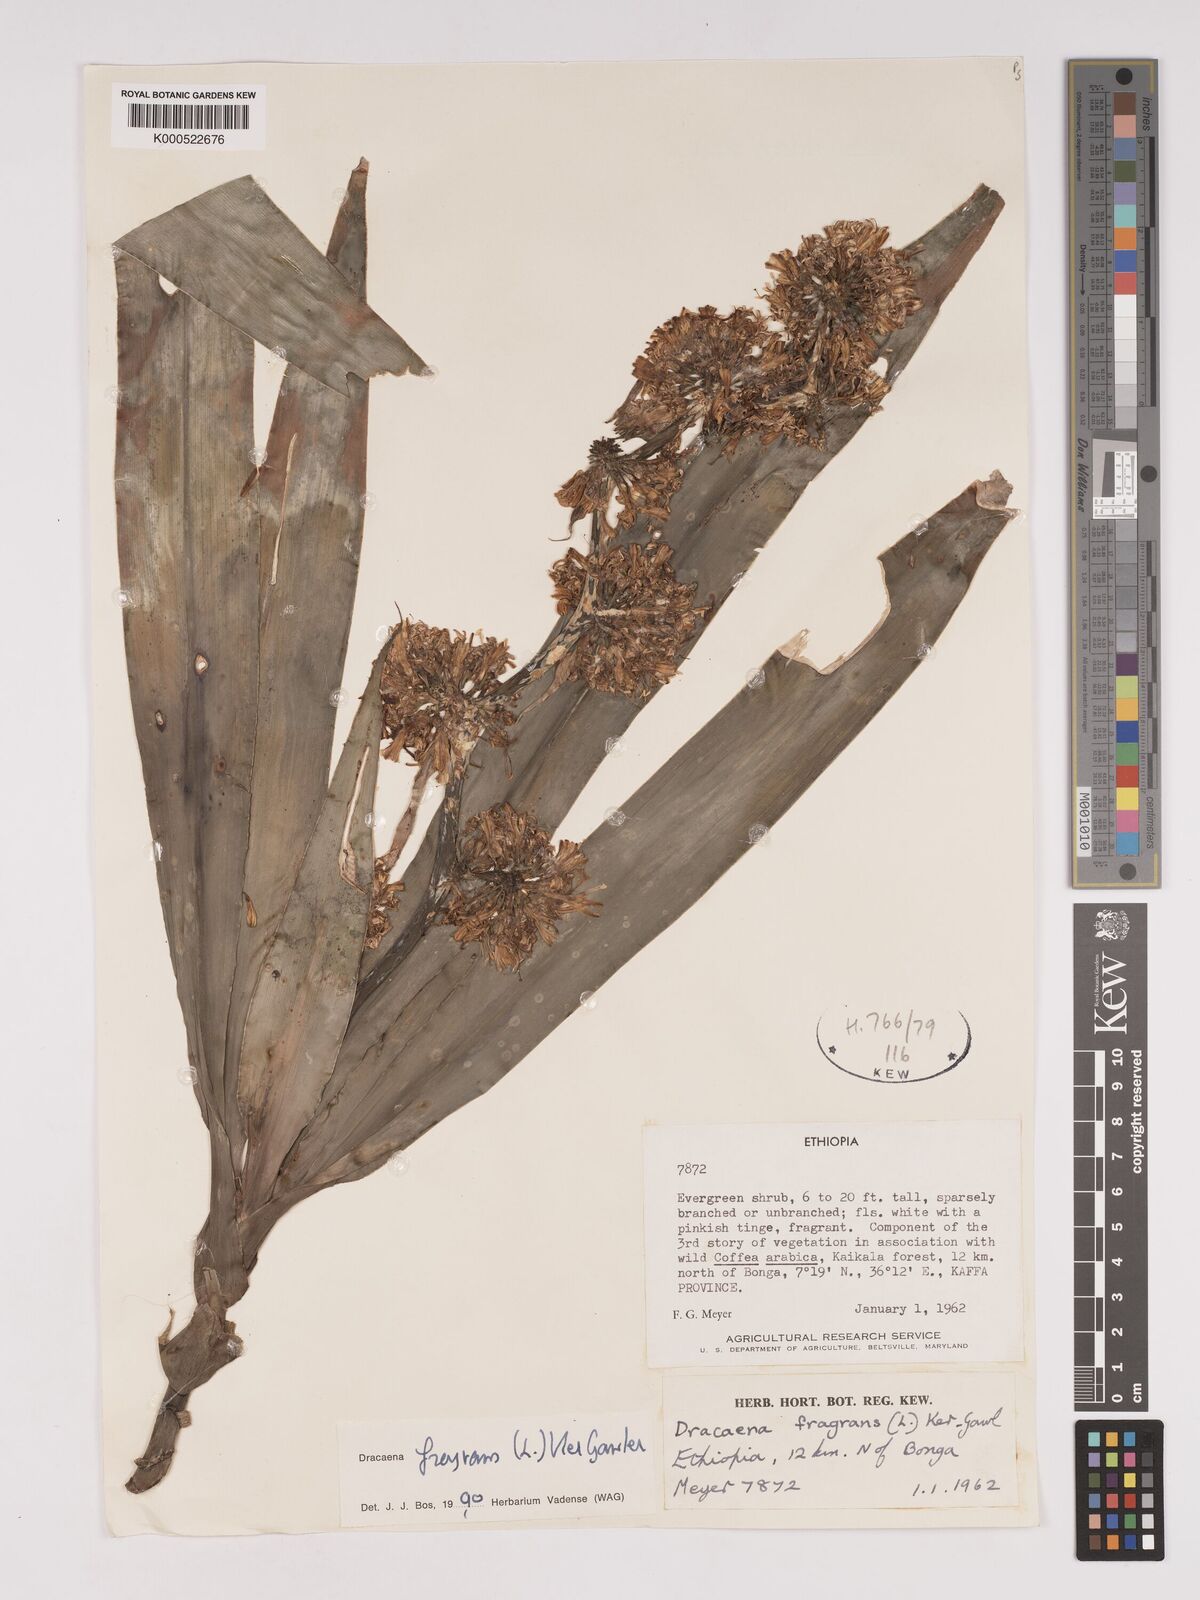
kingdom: Plantae
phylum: Tracheophyta
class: Liliopsida
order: Asparagales
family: Asparagaceae
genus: Dracaena
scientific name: Dracaena fragrans
